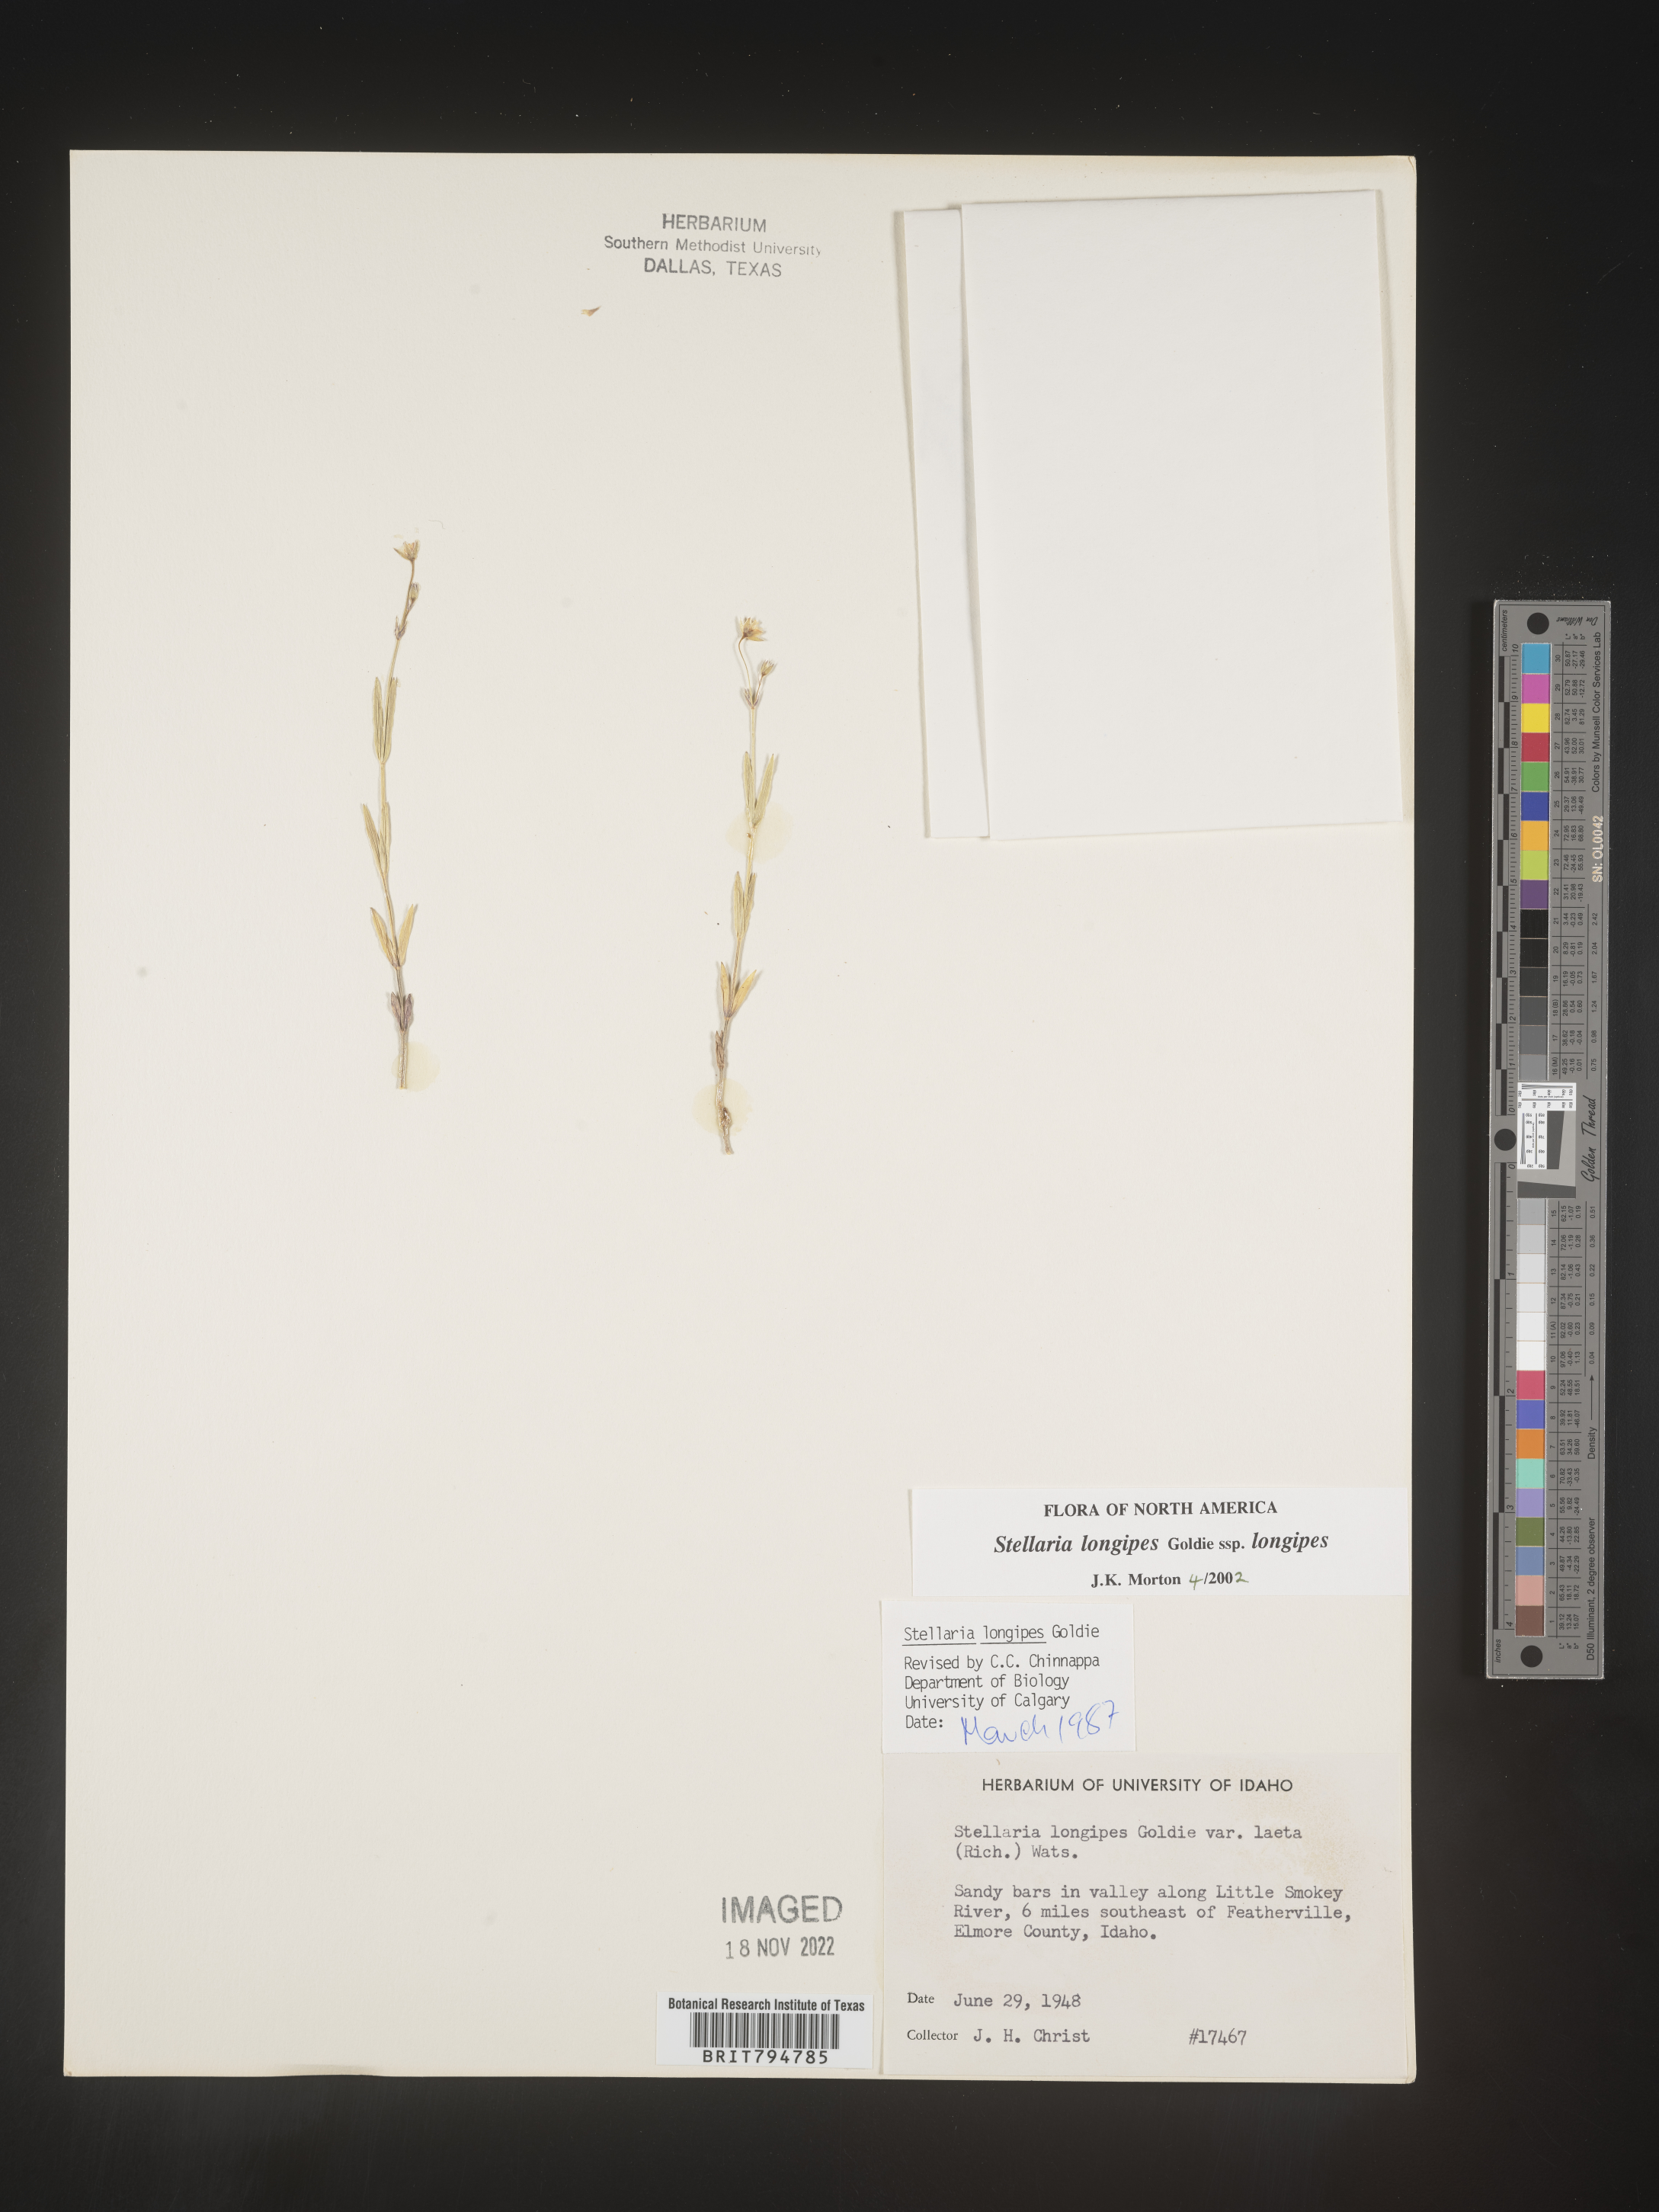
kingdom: Plantae
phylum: Tracheophyta
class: Magnoliopsida
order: Caryophyllales
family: Caryophyllaceae
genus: Stellaria
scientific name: Stellaria longipes
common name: Goldie's starwort
